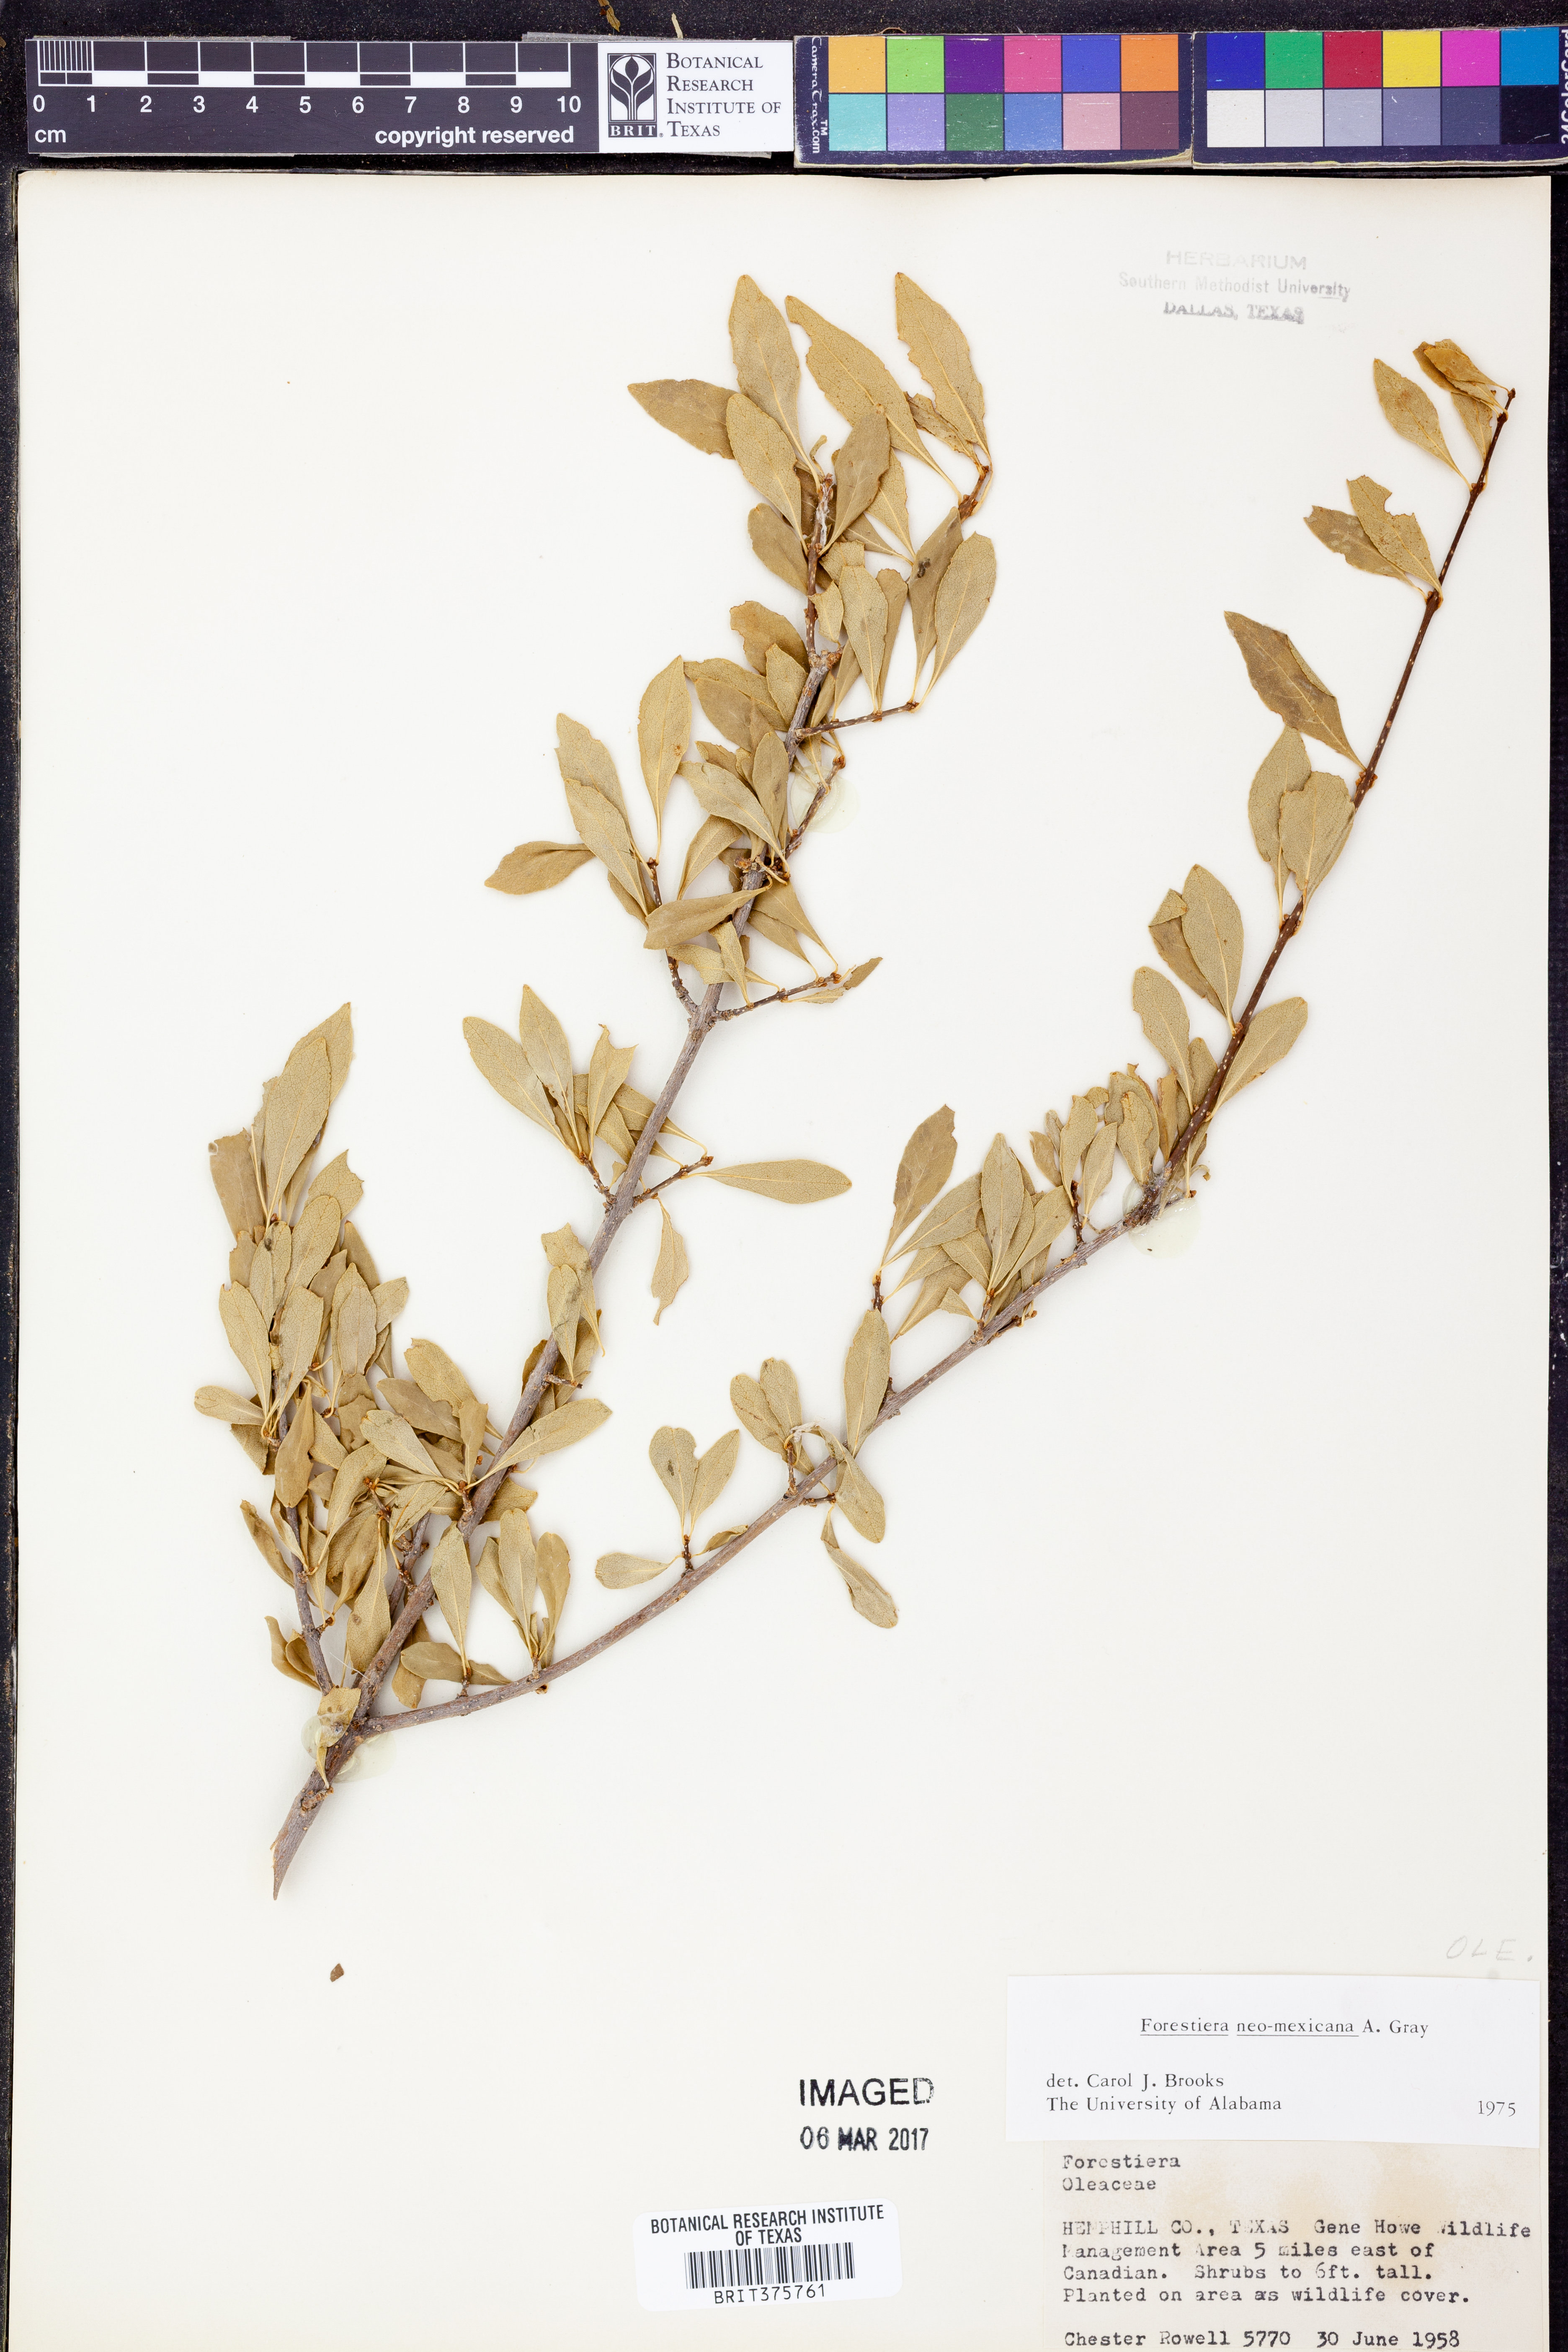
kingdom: Plantae
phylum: Tracheophyta
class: Magnoliopsida
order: Lamiales
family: Oleaceae
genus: Forestiera
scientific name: Forestiera pubescens
